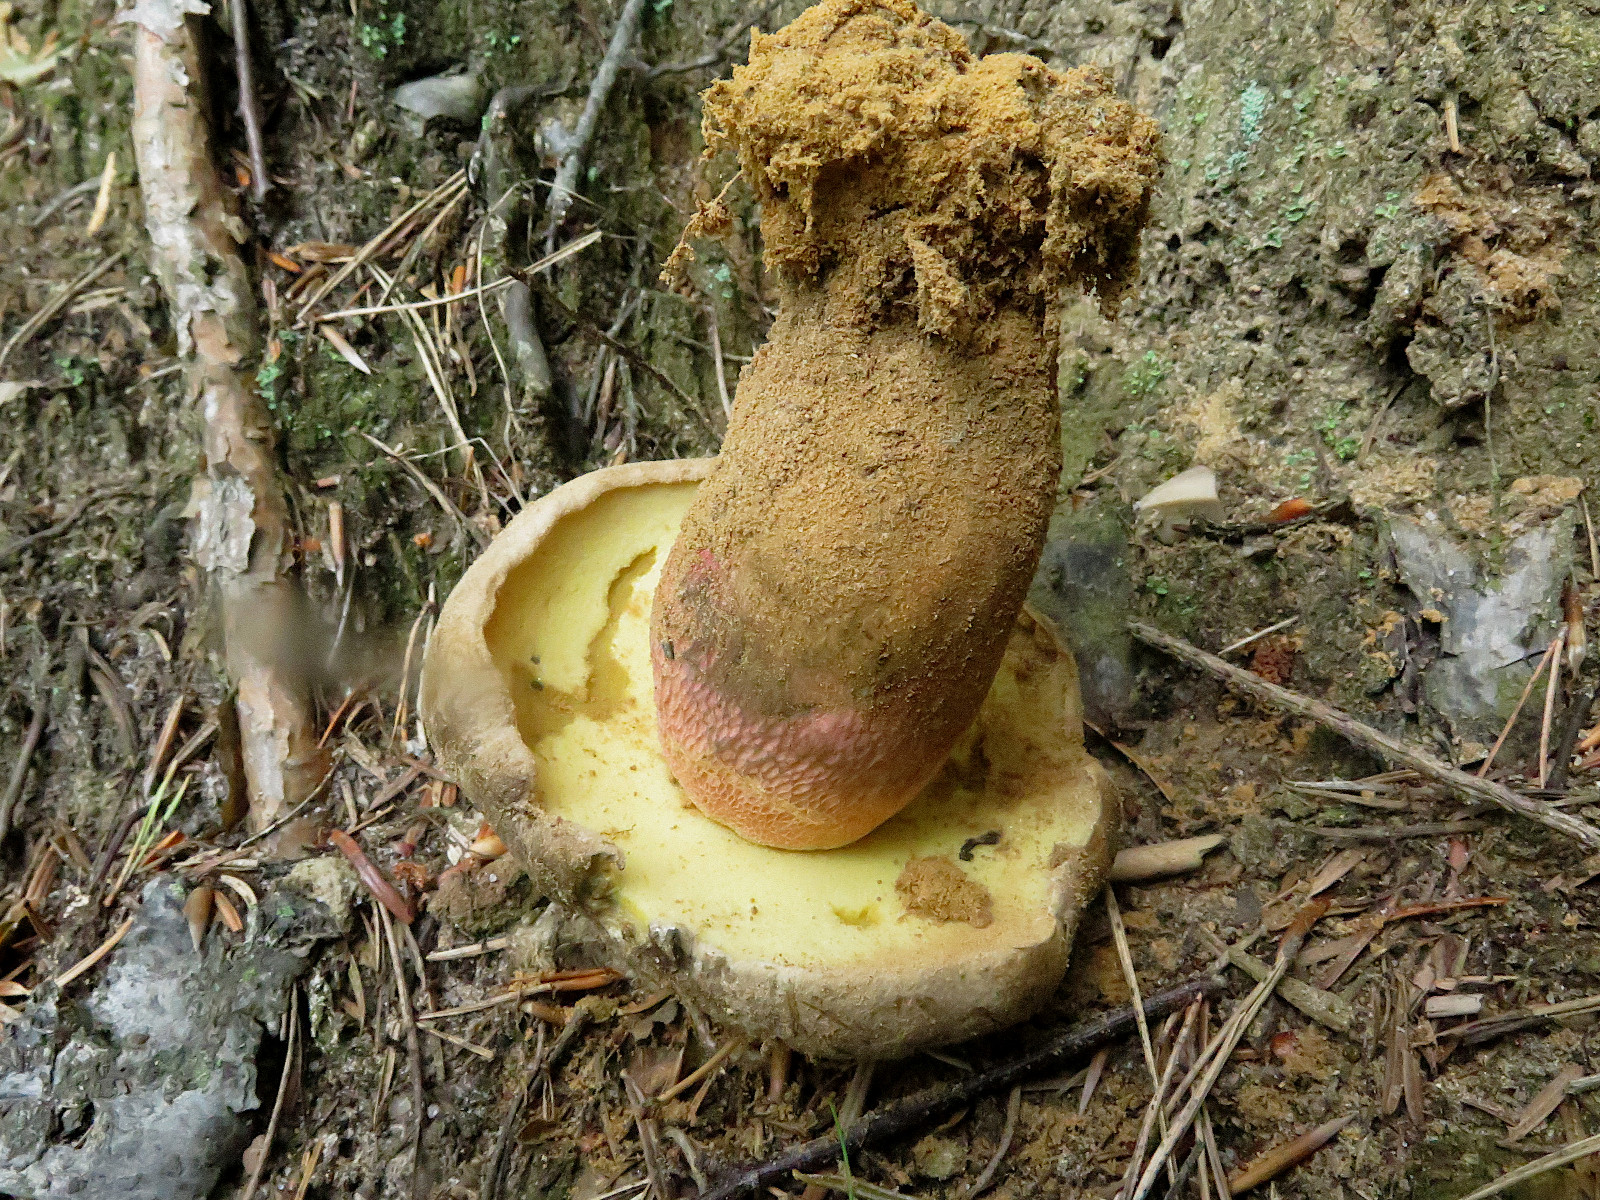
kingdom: Fungi
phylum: Basidiomycota
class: Agaricomycetes
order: Boletales
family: Boletaceae
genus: Caloboletus
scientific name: Caloboletus calopus
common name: skønfodet rørhat
